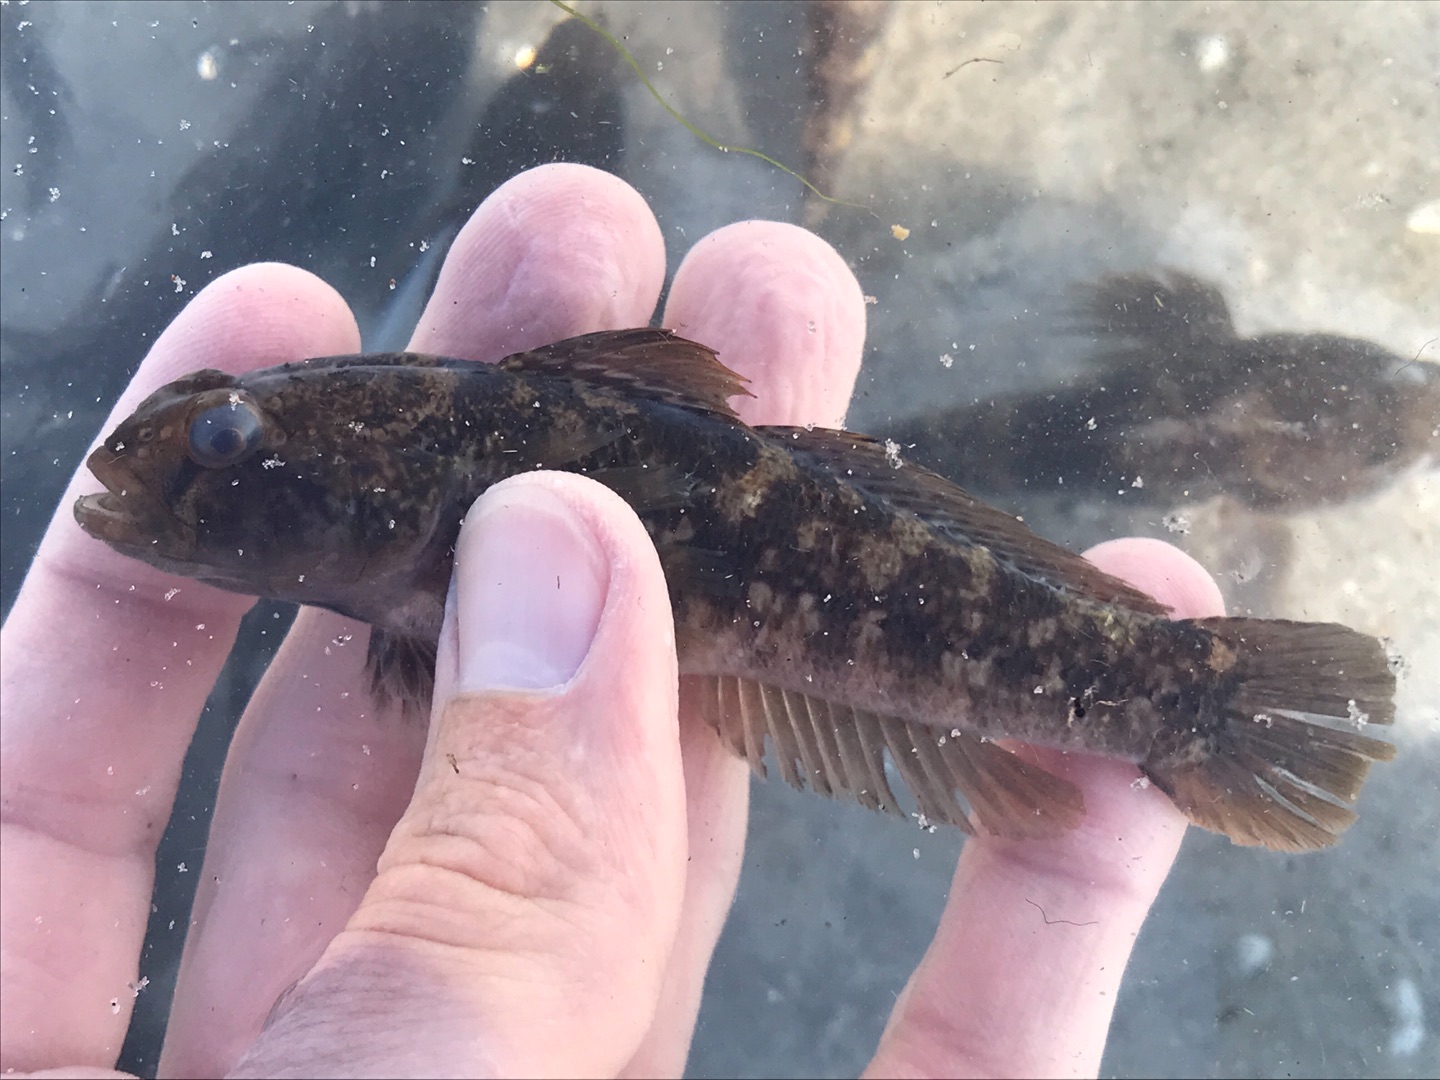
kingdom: Animalia
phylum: Chordata
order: Perciformes
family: Gobiidae
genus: Gobius
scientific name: Gobius niger
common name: Sortkutling
